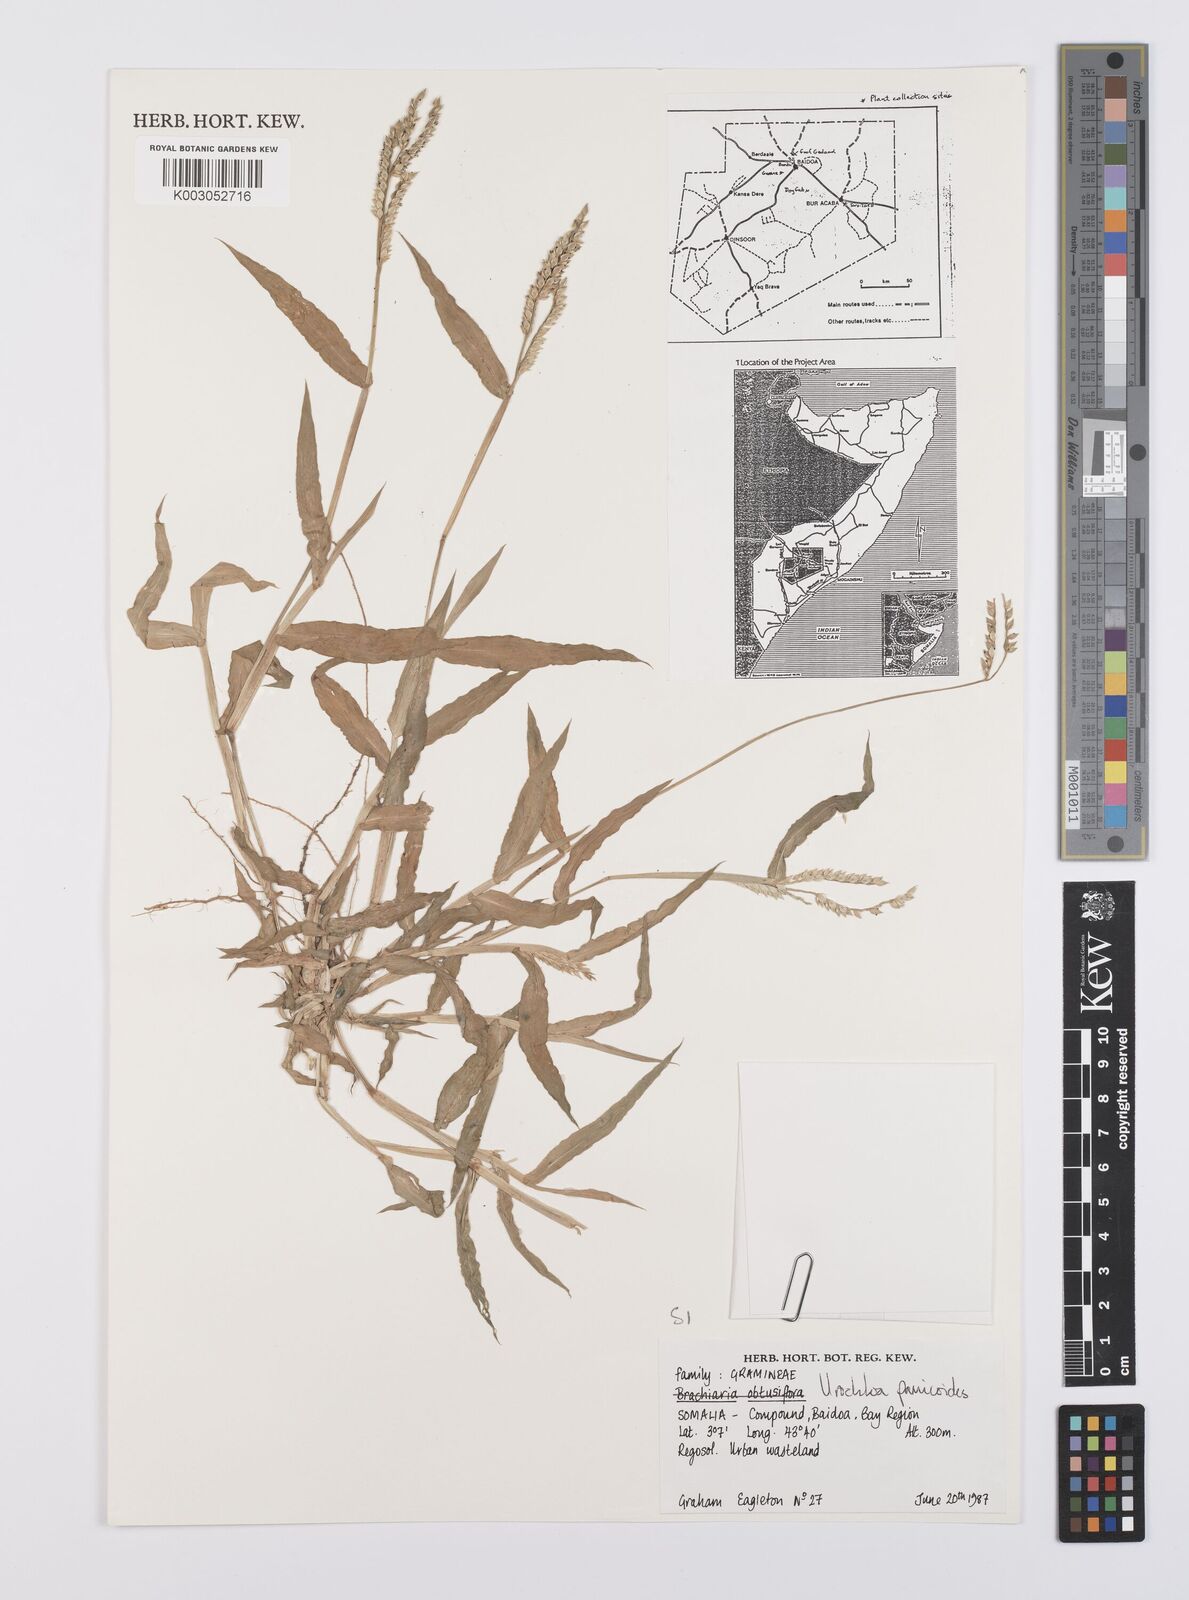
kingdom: Plantae
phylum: Tracheophyta
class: Liliopsida
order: Poales
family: Poaceae
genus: Urochloa
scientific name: Urochloa panicoides
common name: Sharp-flowered signal-grass
